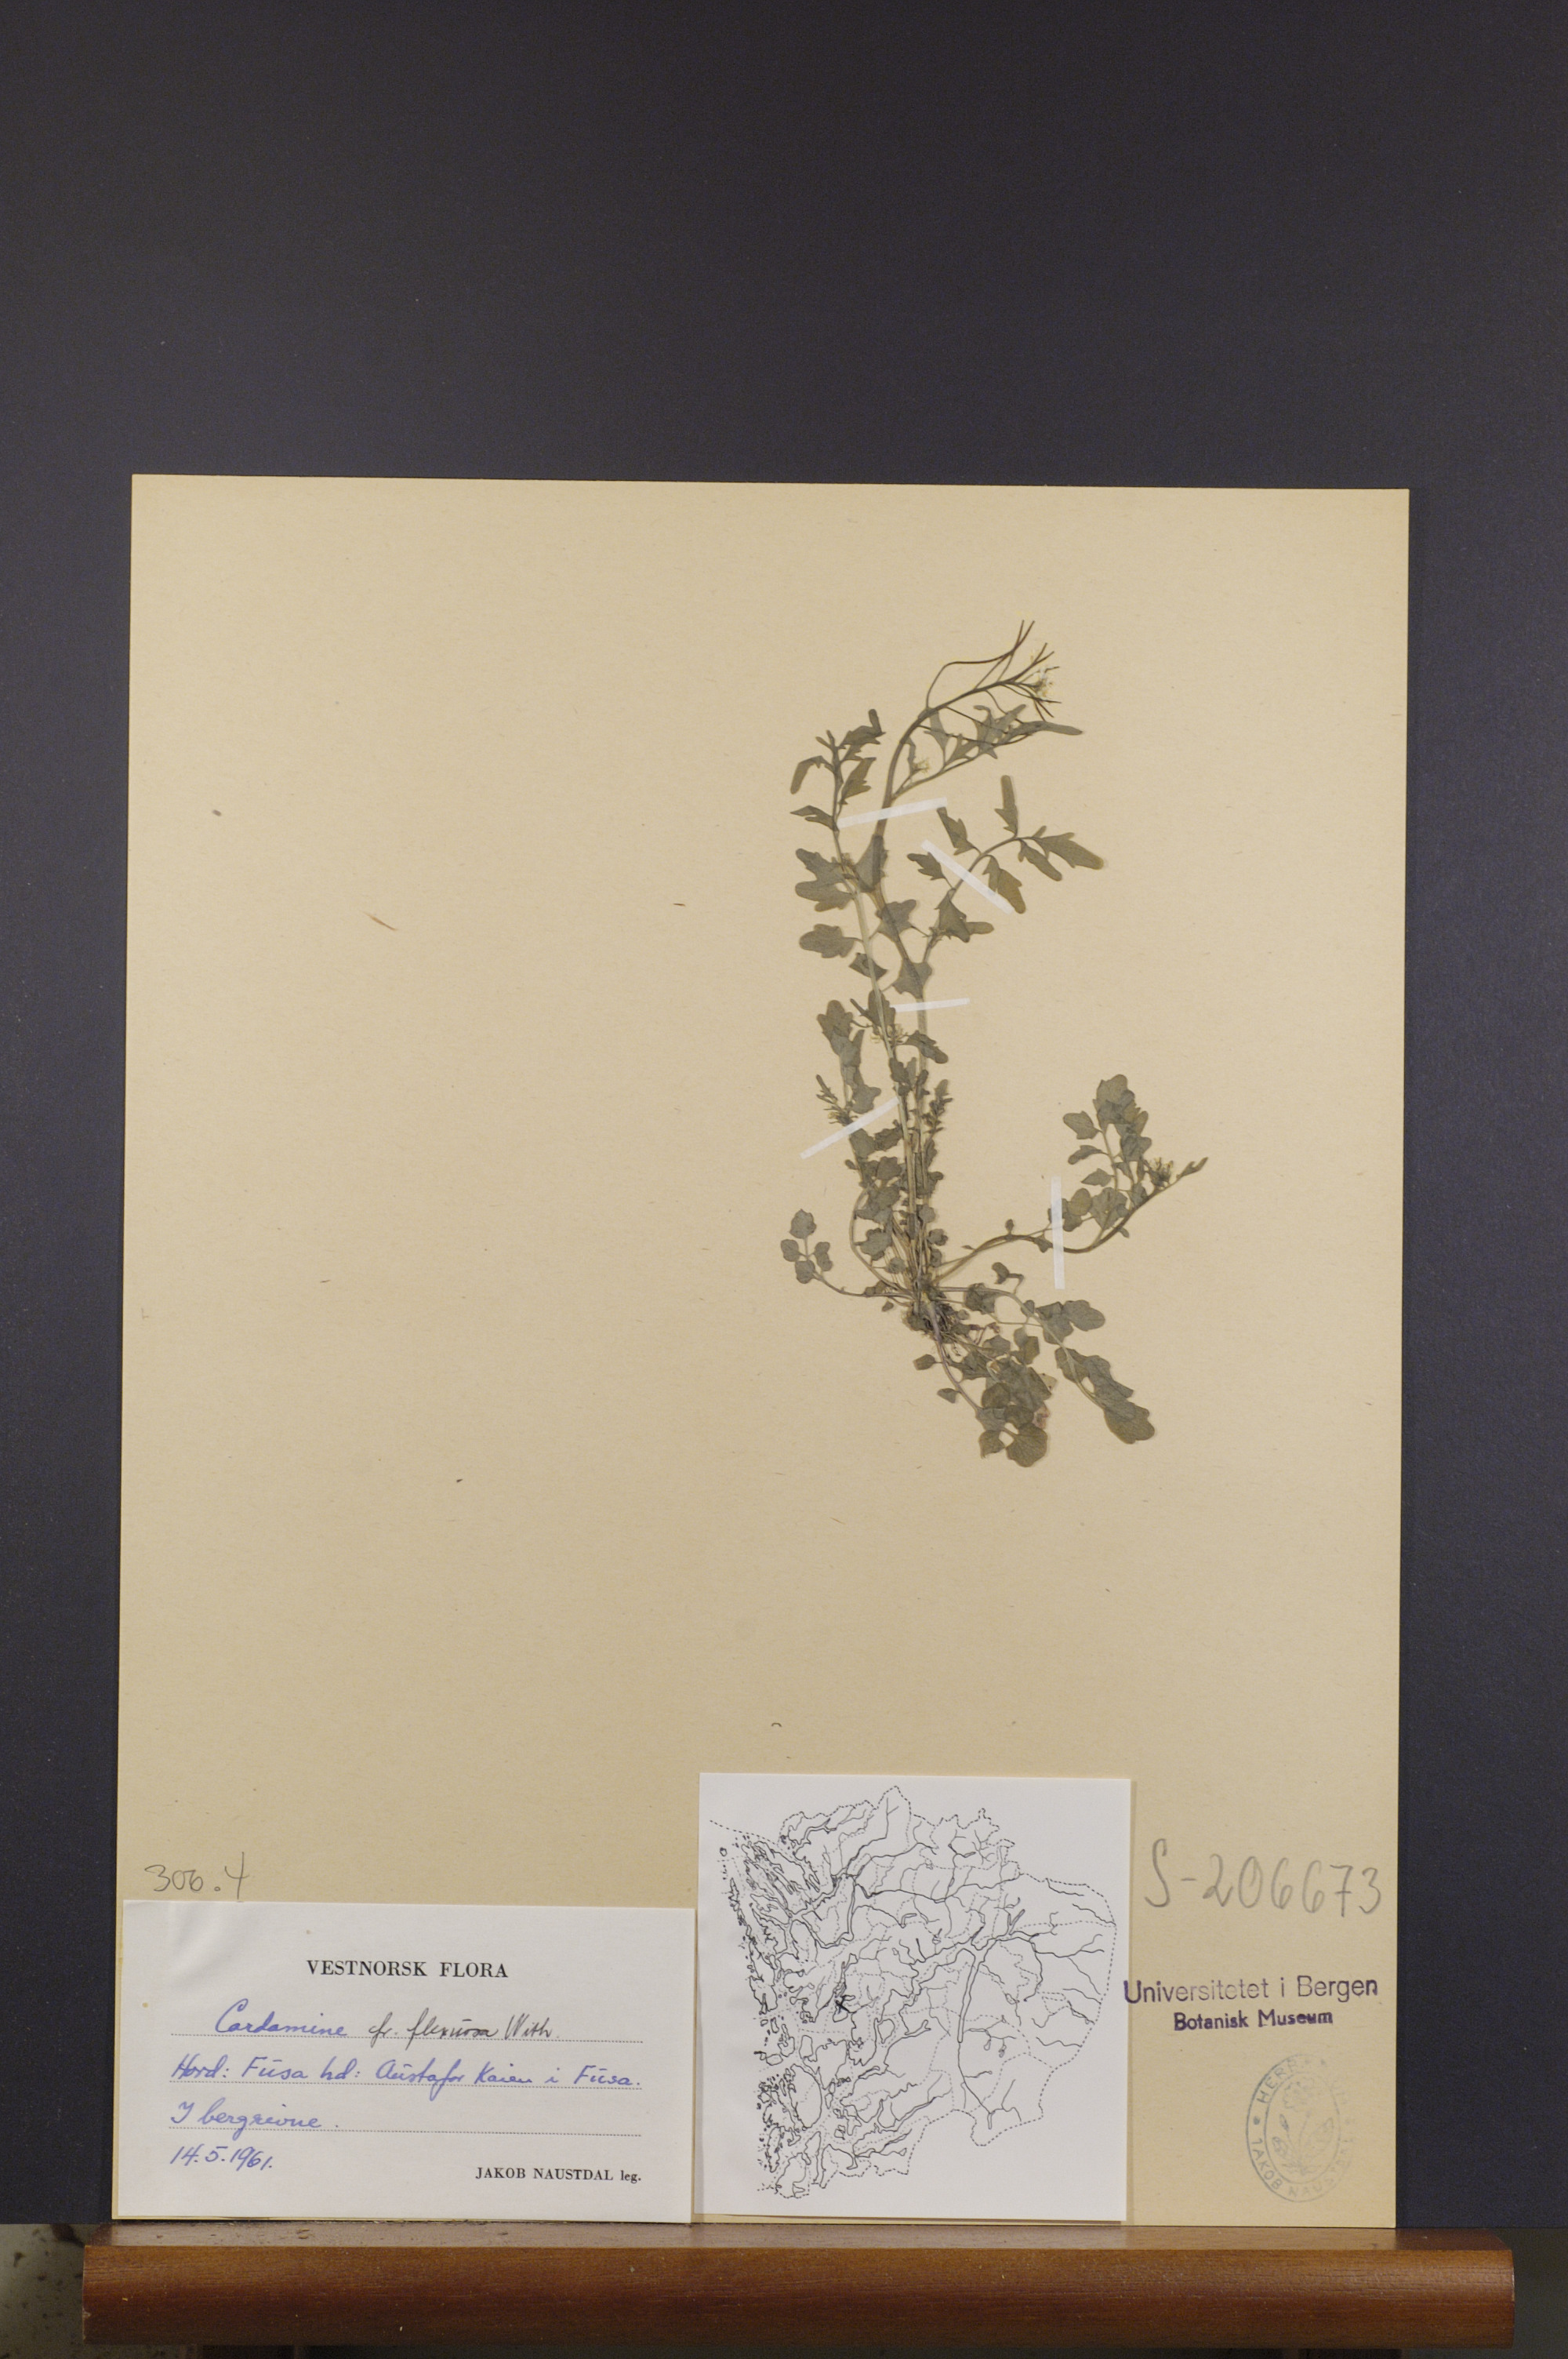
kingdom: Plantae
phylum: Tracheophyta
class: Magnoliopsida
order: Brassicales
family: Brassicaceae
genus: Cardamine
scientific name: Cardamine flexuosa
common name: Woodland bittercress
